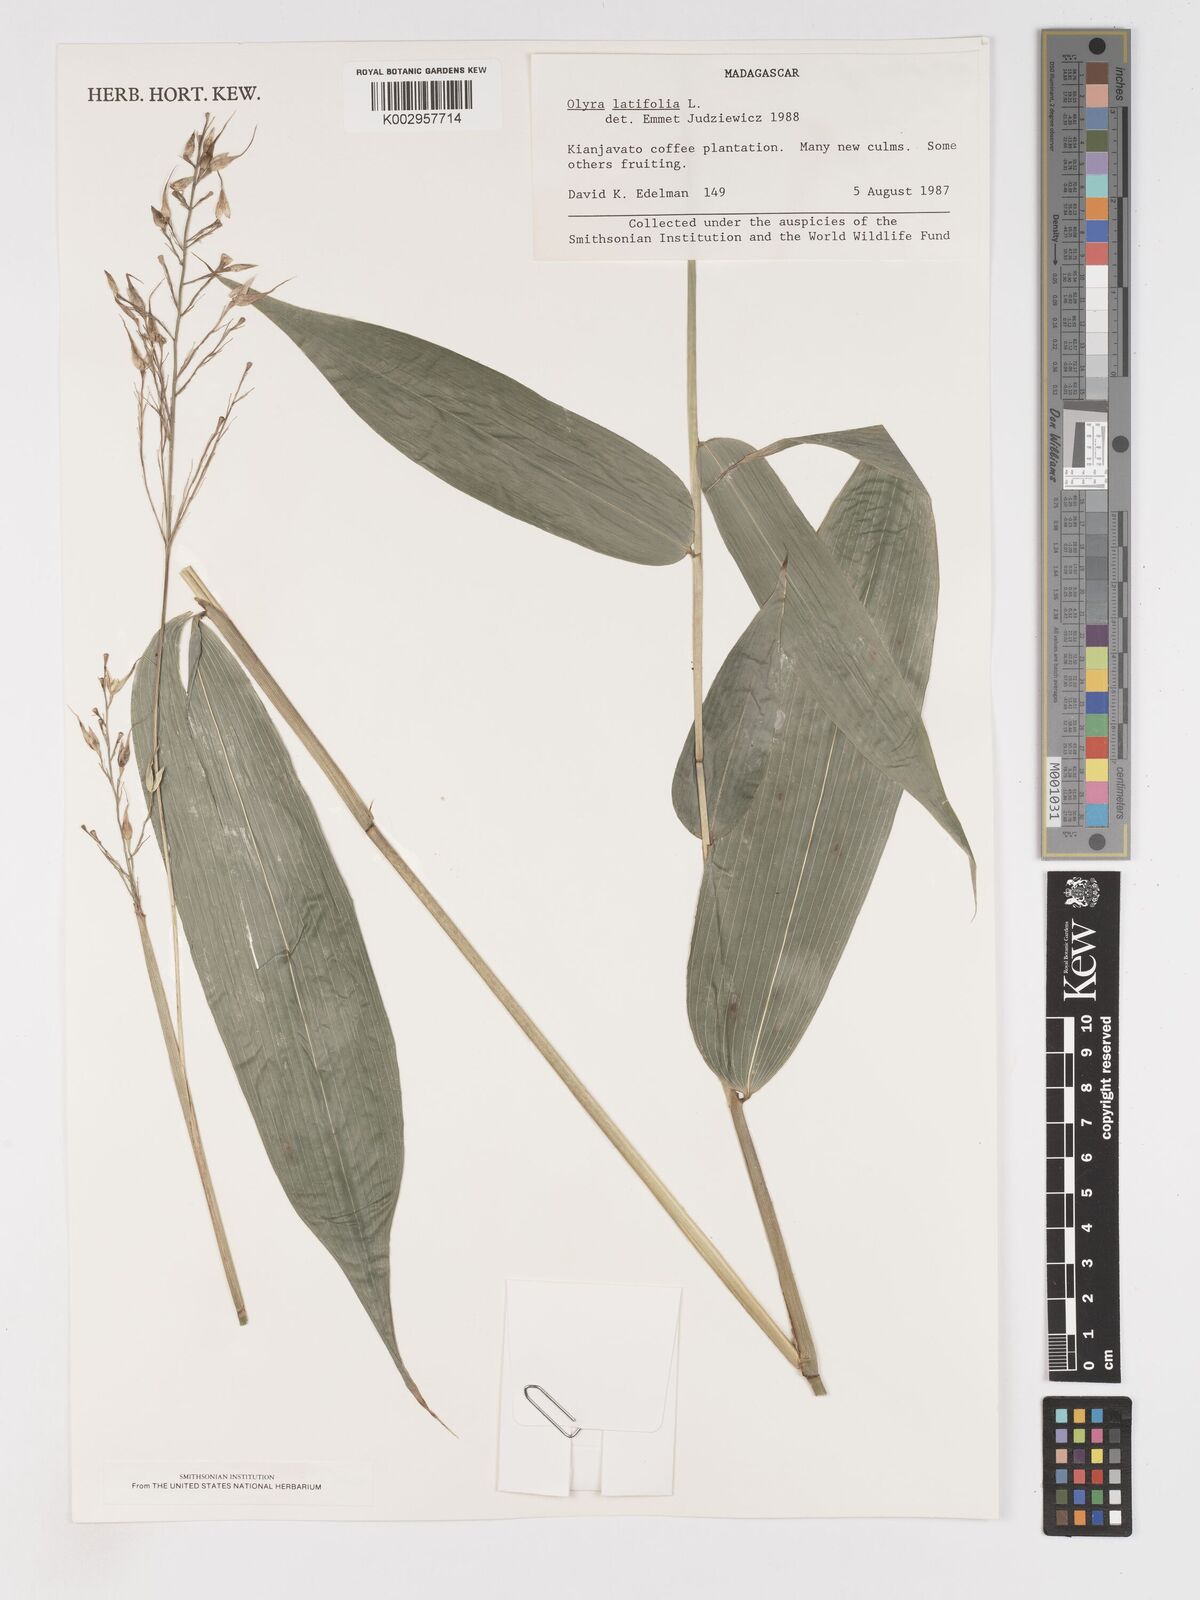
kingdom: Plantae
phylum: Tracheophyta
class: Liliopsida
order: Poales
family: Poaceae
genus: Olyra
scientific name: Olyra latifolia
